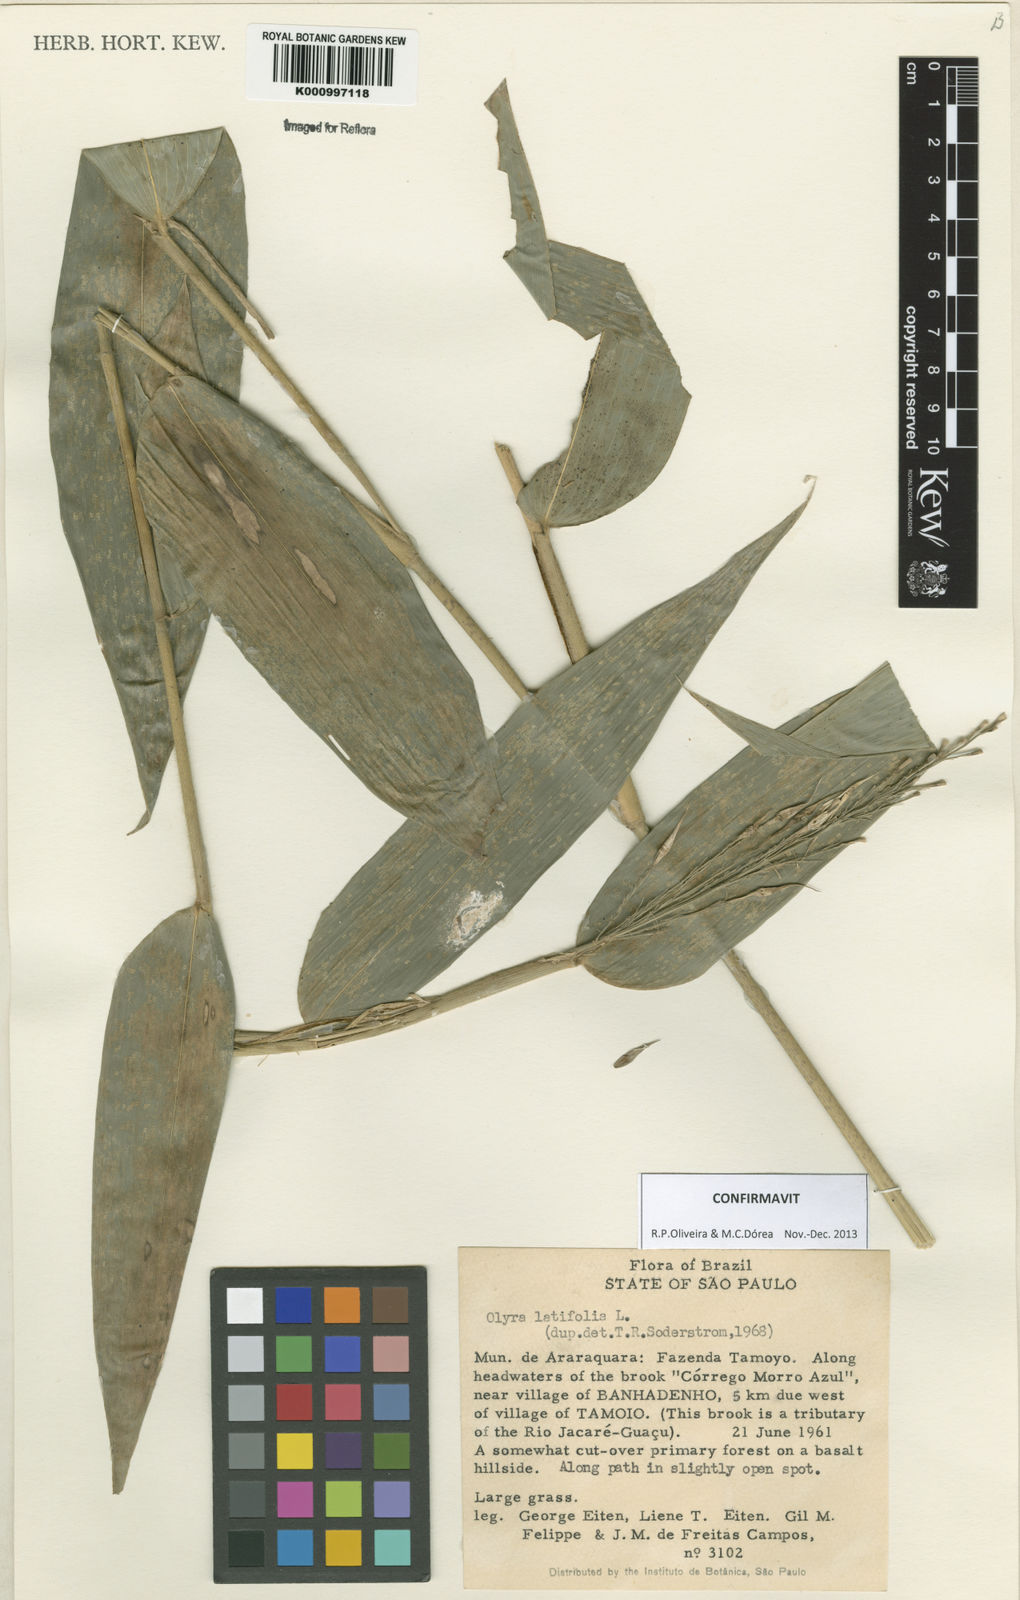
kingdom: Plantae
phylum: Tracheophyta
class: Liliopsida
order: Poales
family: Poaceae
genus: Olyra
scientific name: Olyra latifolia
